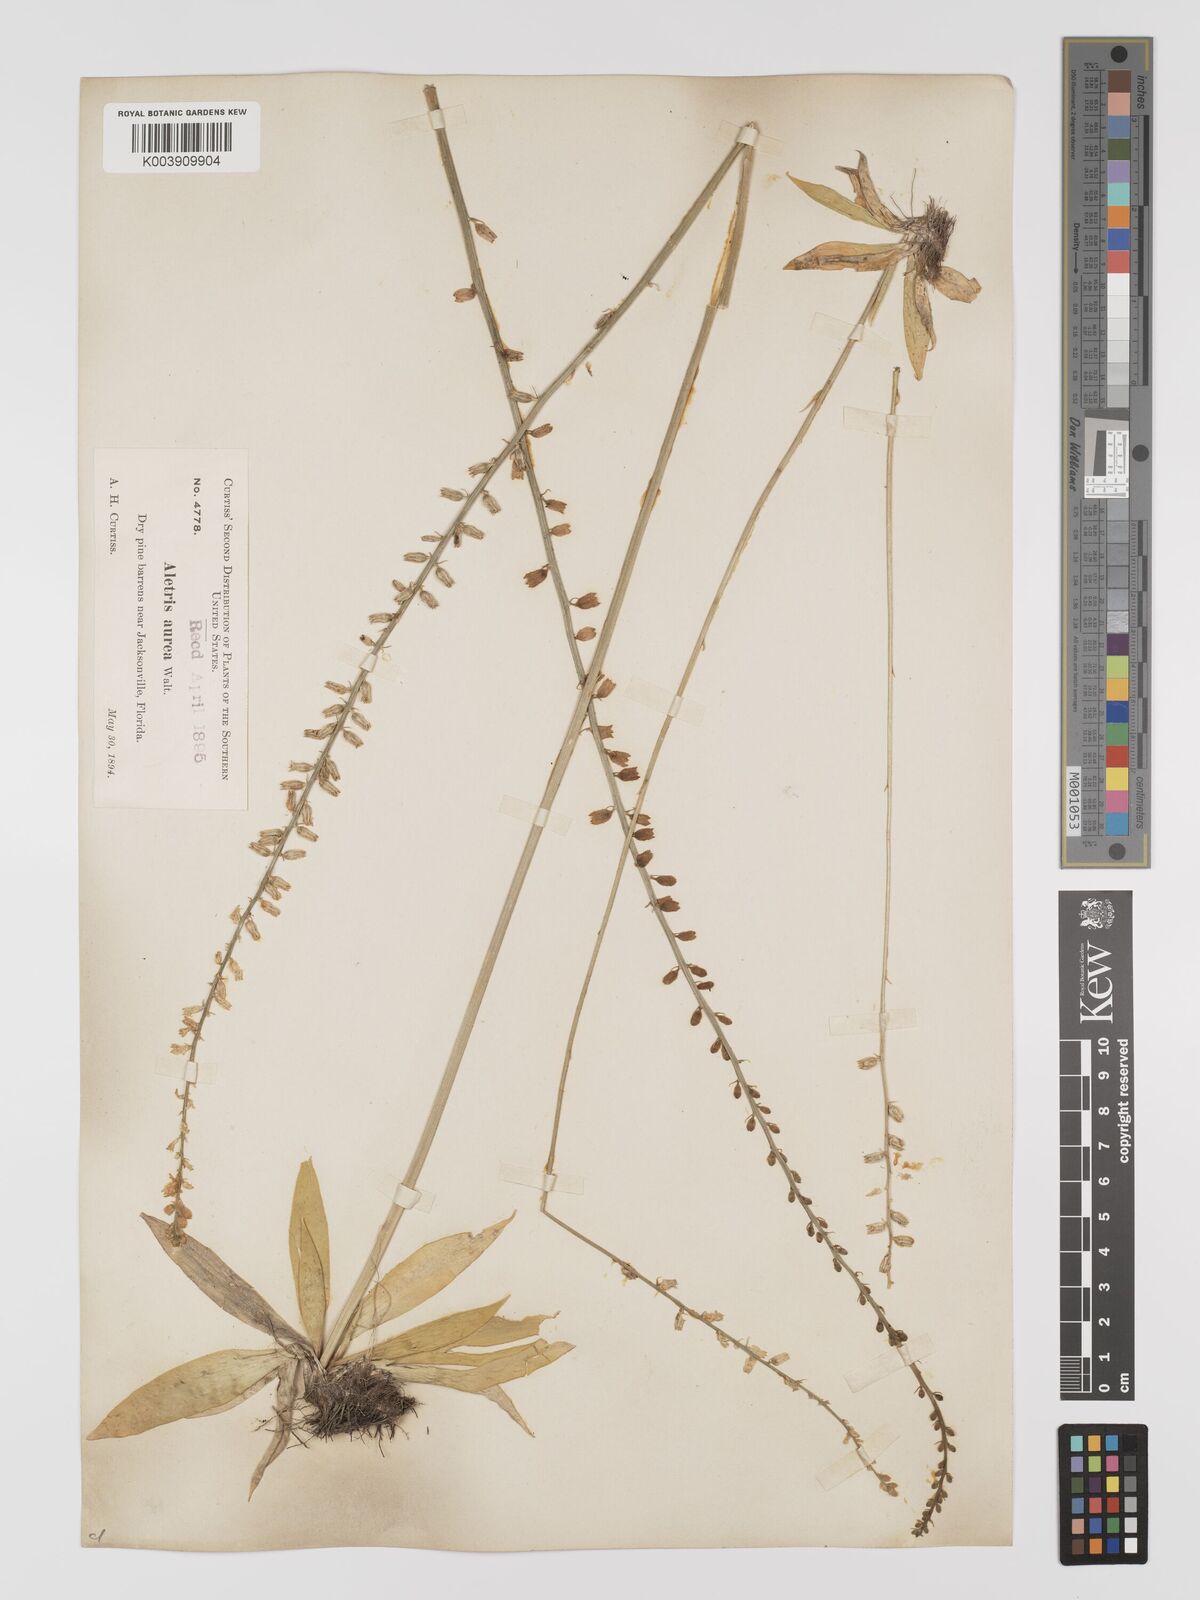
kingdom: Plantae
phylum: Tracheophyta
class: Liliopsida
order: Dioscoreales
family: Nartheciaceae
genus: Aletris
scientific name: Aletris aurea
